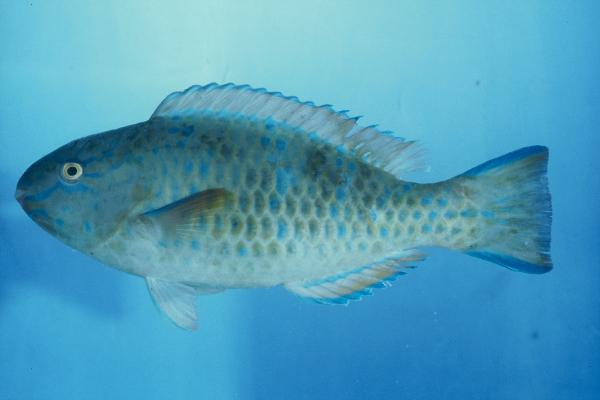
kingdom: Animalia
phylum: Chordata
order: Perciformes
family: Scaridae
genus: Chlorurus
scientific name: Chlorurus sordidus
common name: Bullethead parrotfish
